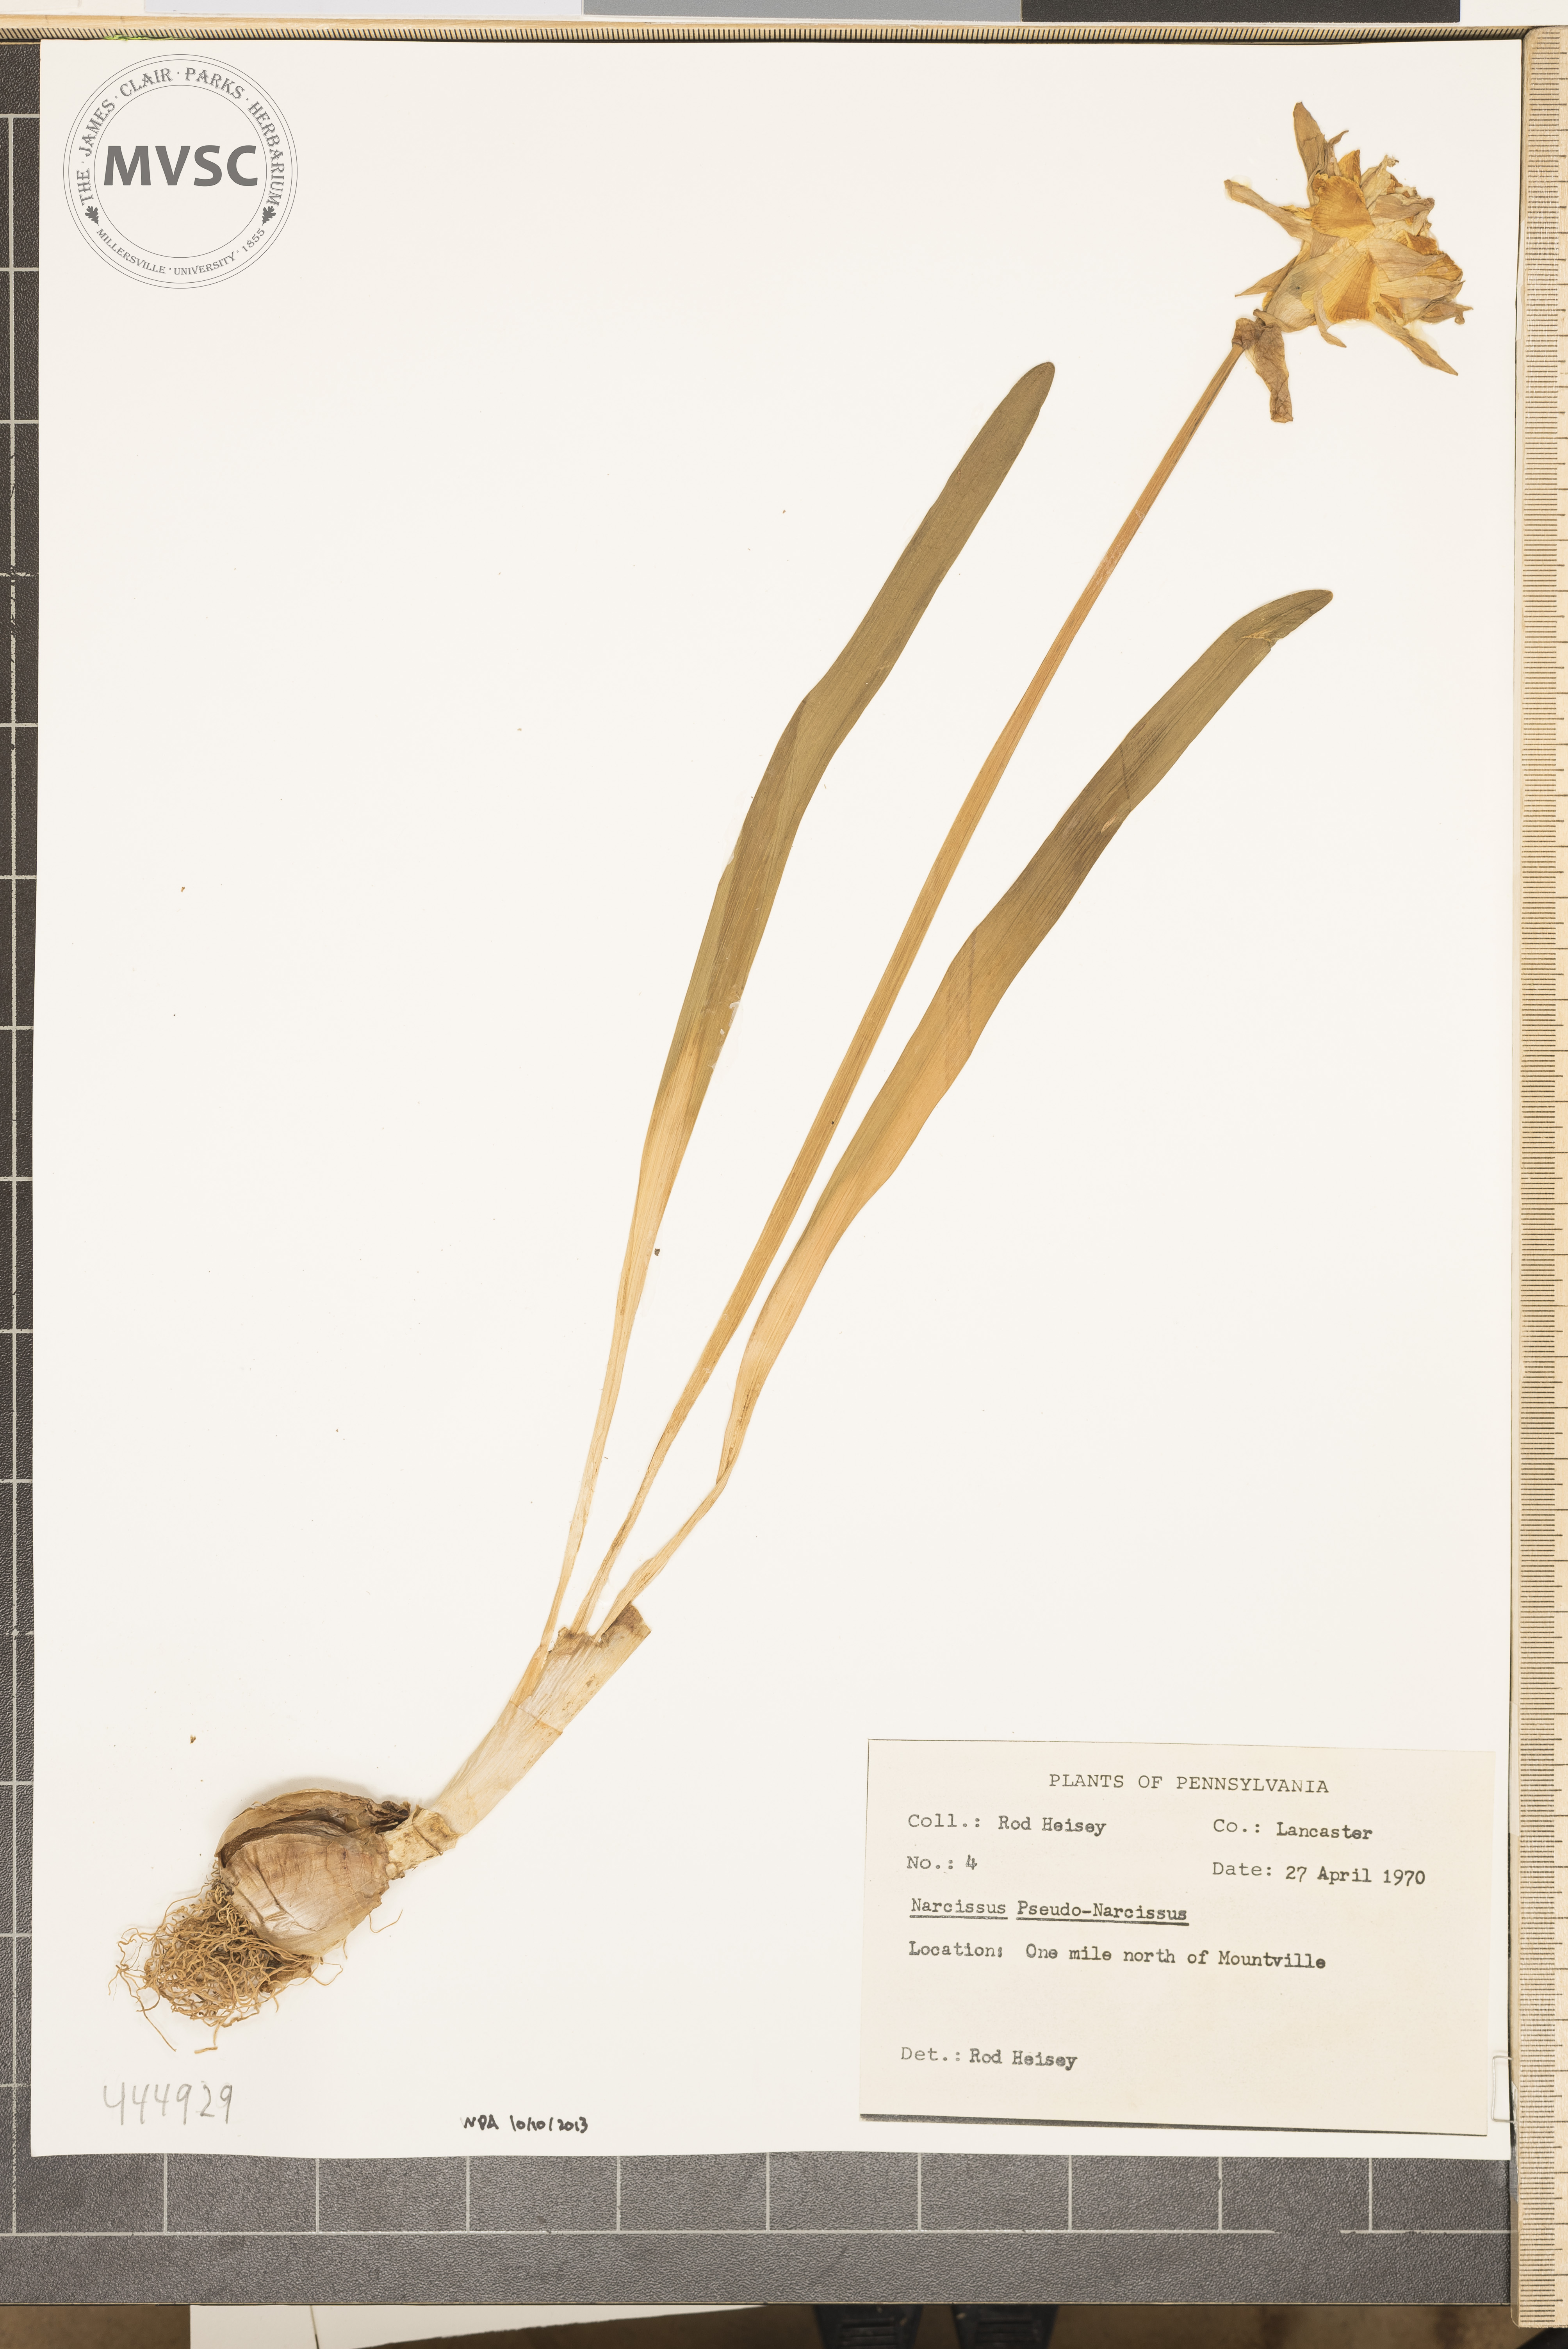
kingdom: Plantae
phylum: Tracheophyta
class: Liliopsida
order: Asparagales
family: Amaryllidaceae
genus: Narcissus
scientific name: Narcissus pseudonarcissus
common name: Daffodil
